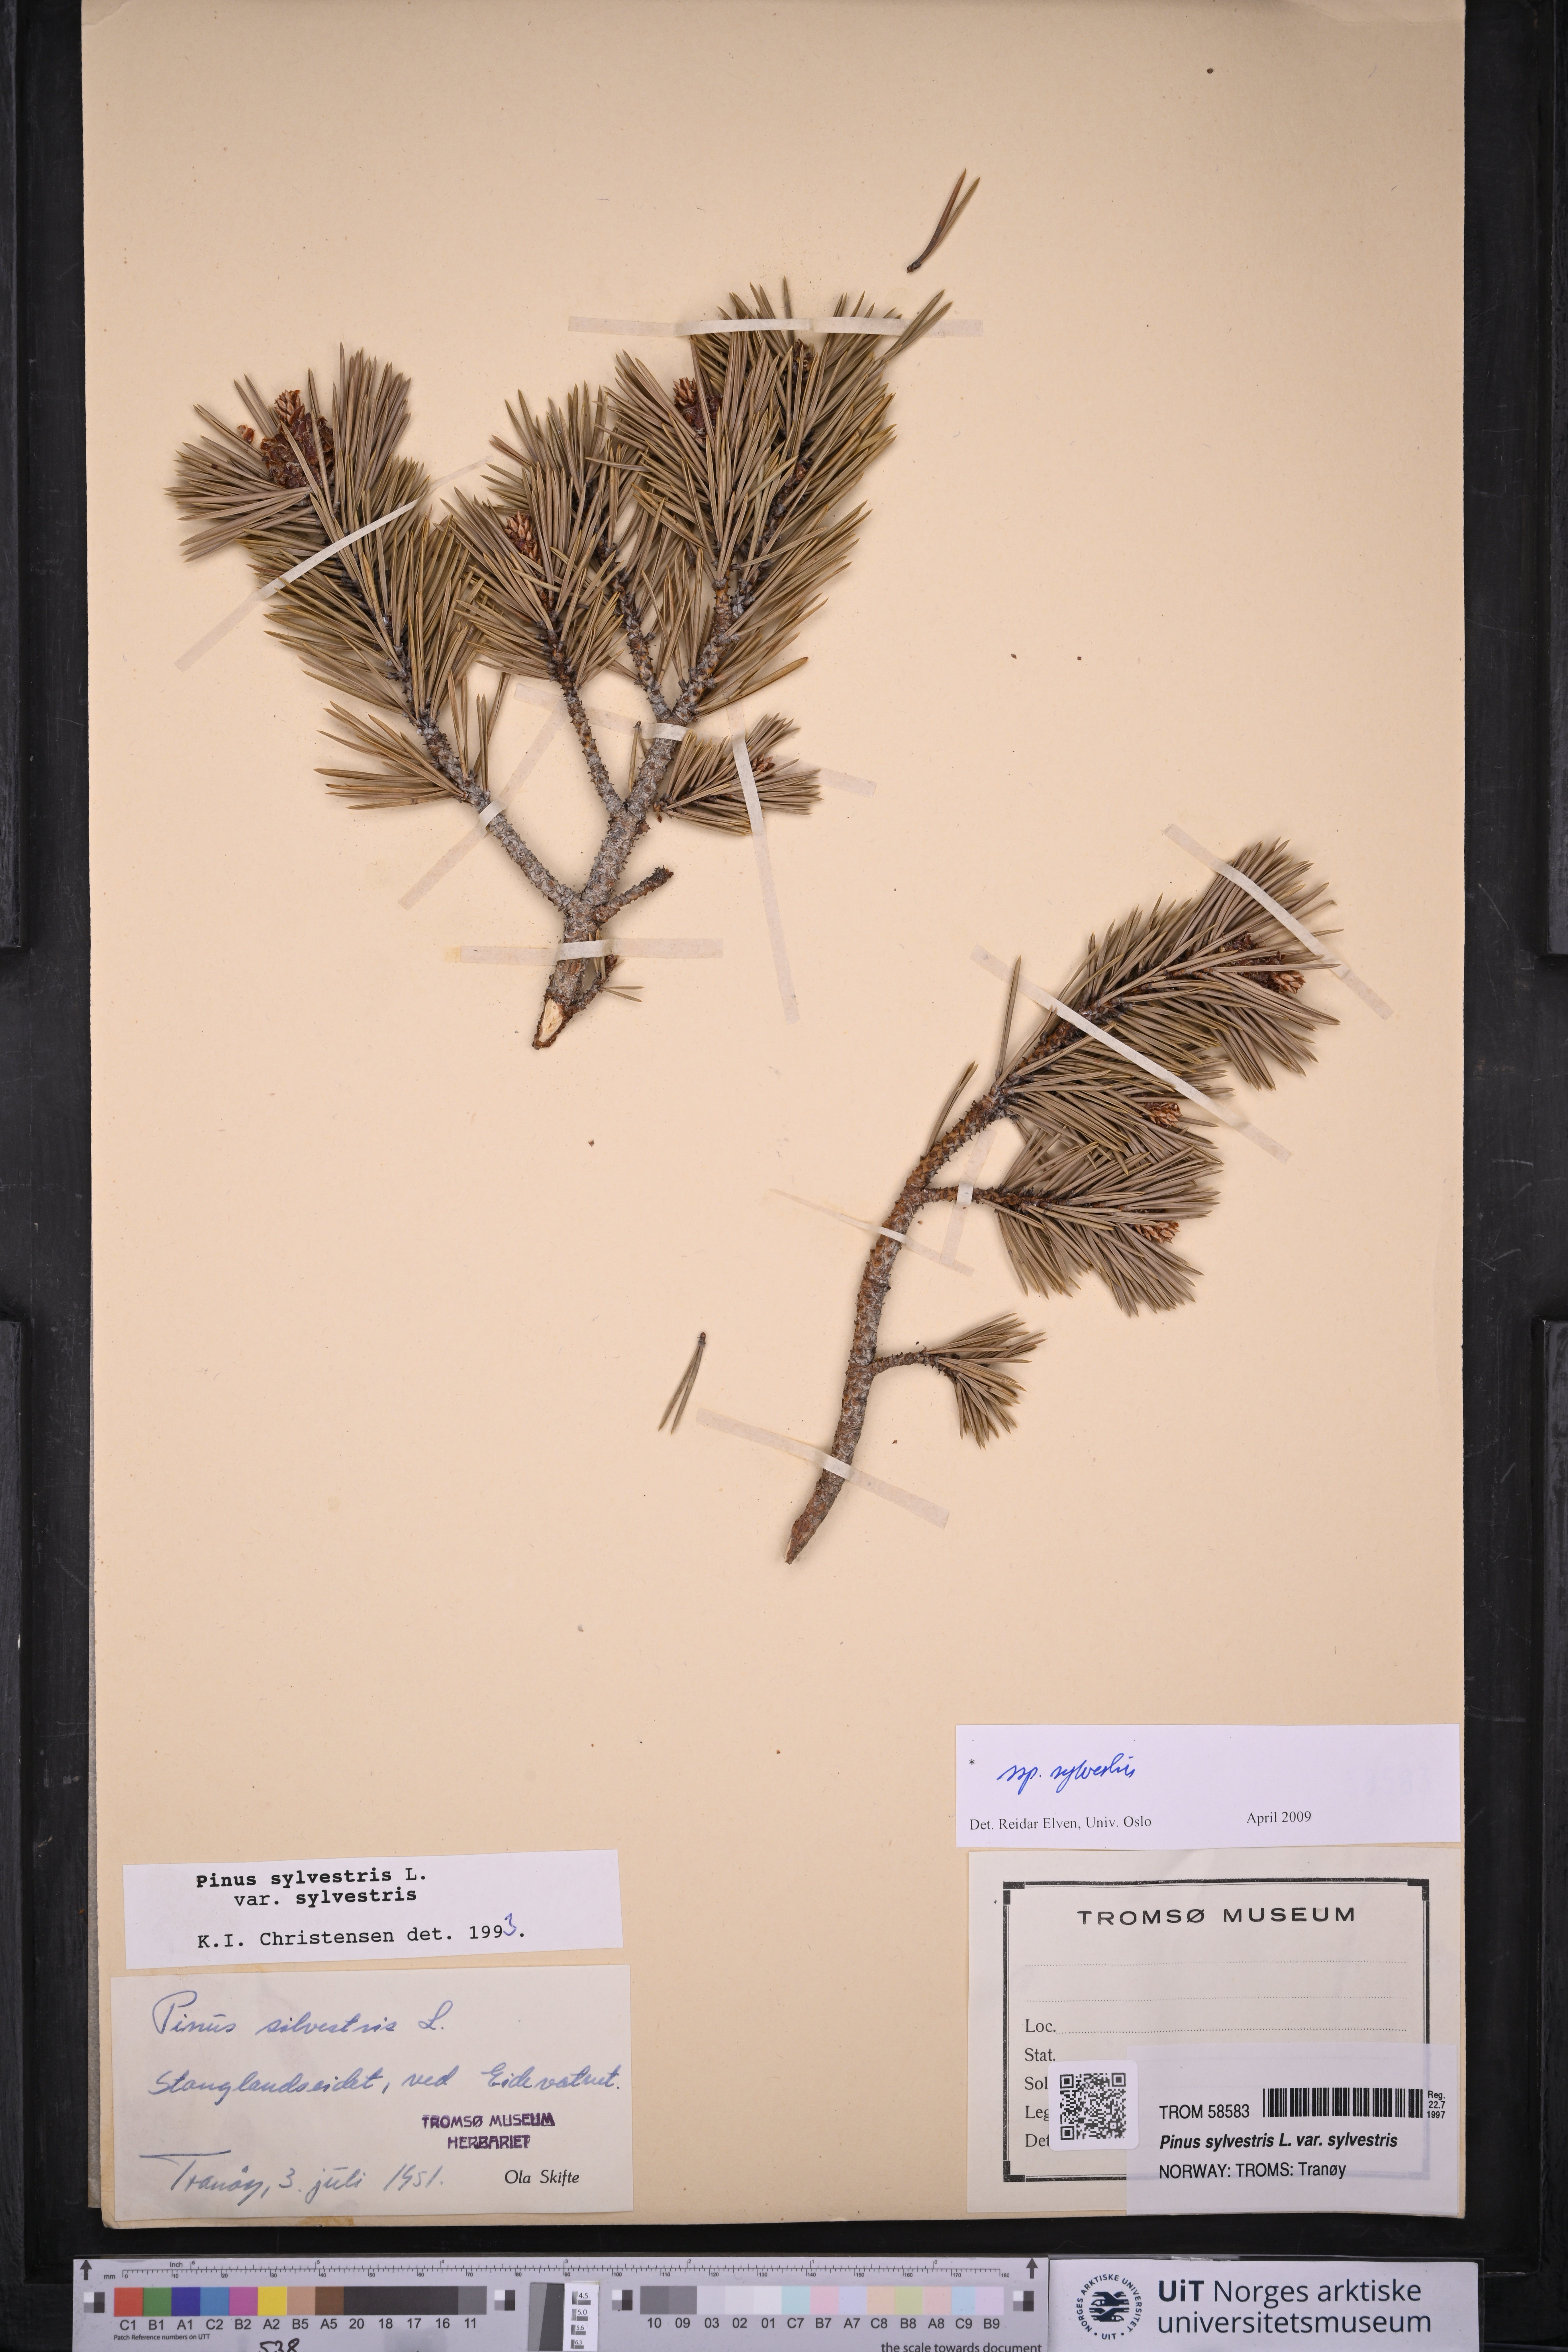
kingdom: Plantae
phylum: Tracheophyta
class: Pinopsida
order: Pinales
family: Pinaceae
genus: Pinus
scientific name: Pinus sylvestris
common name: Scots pine
